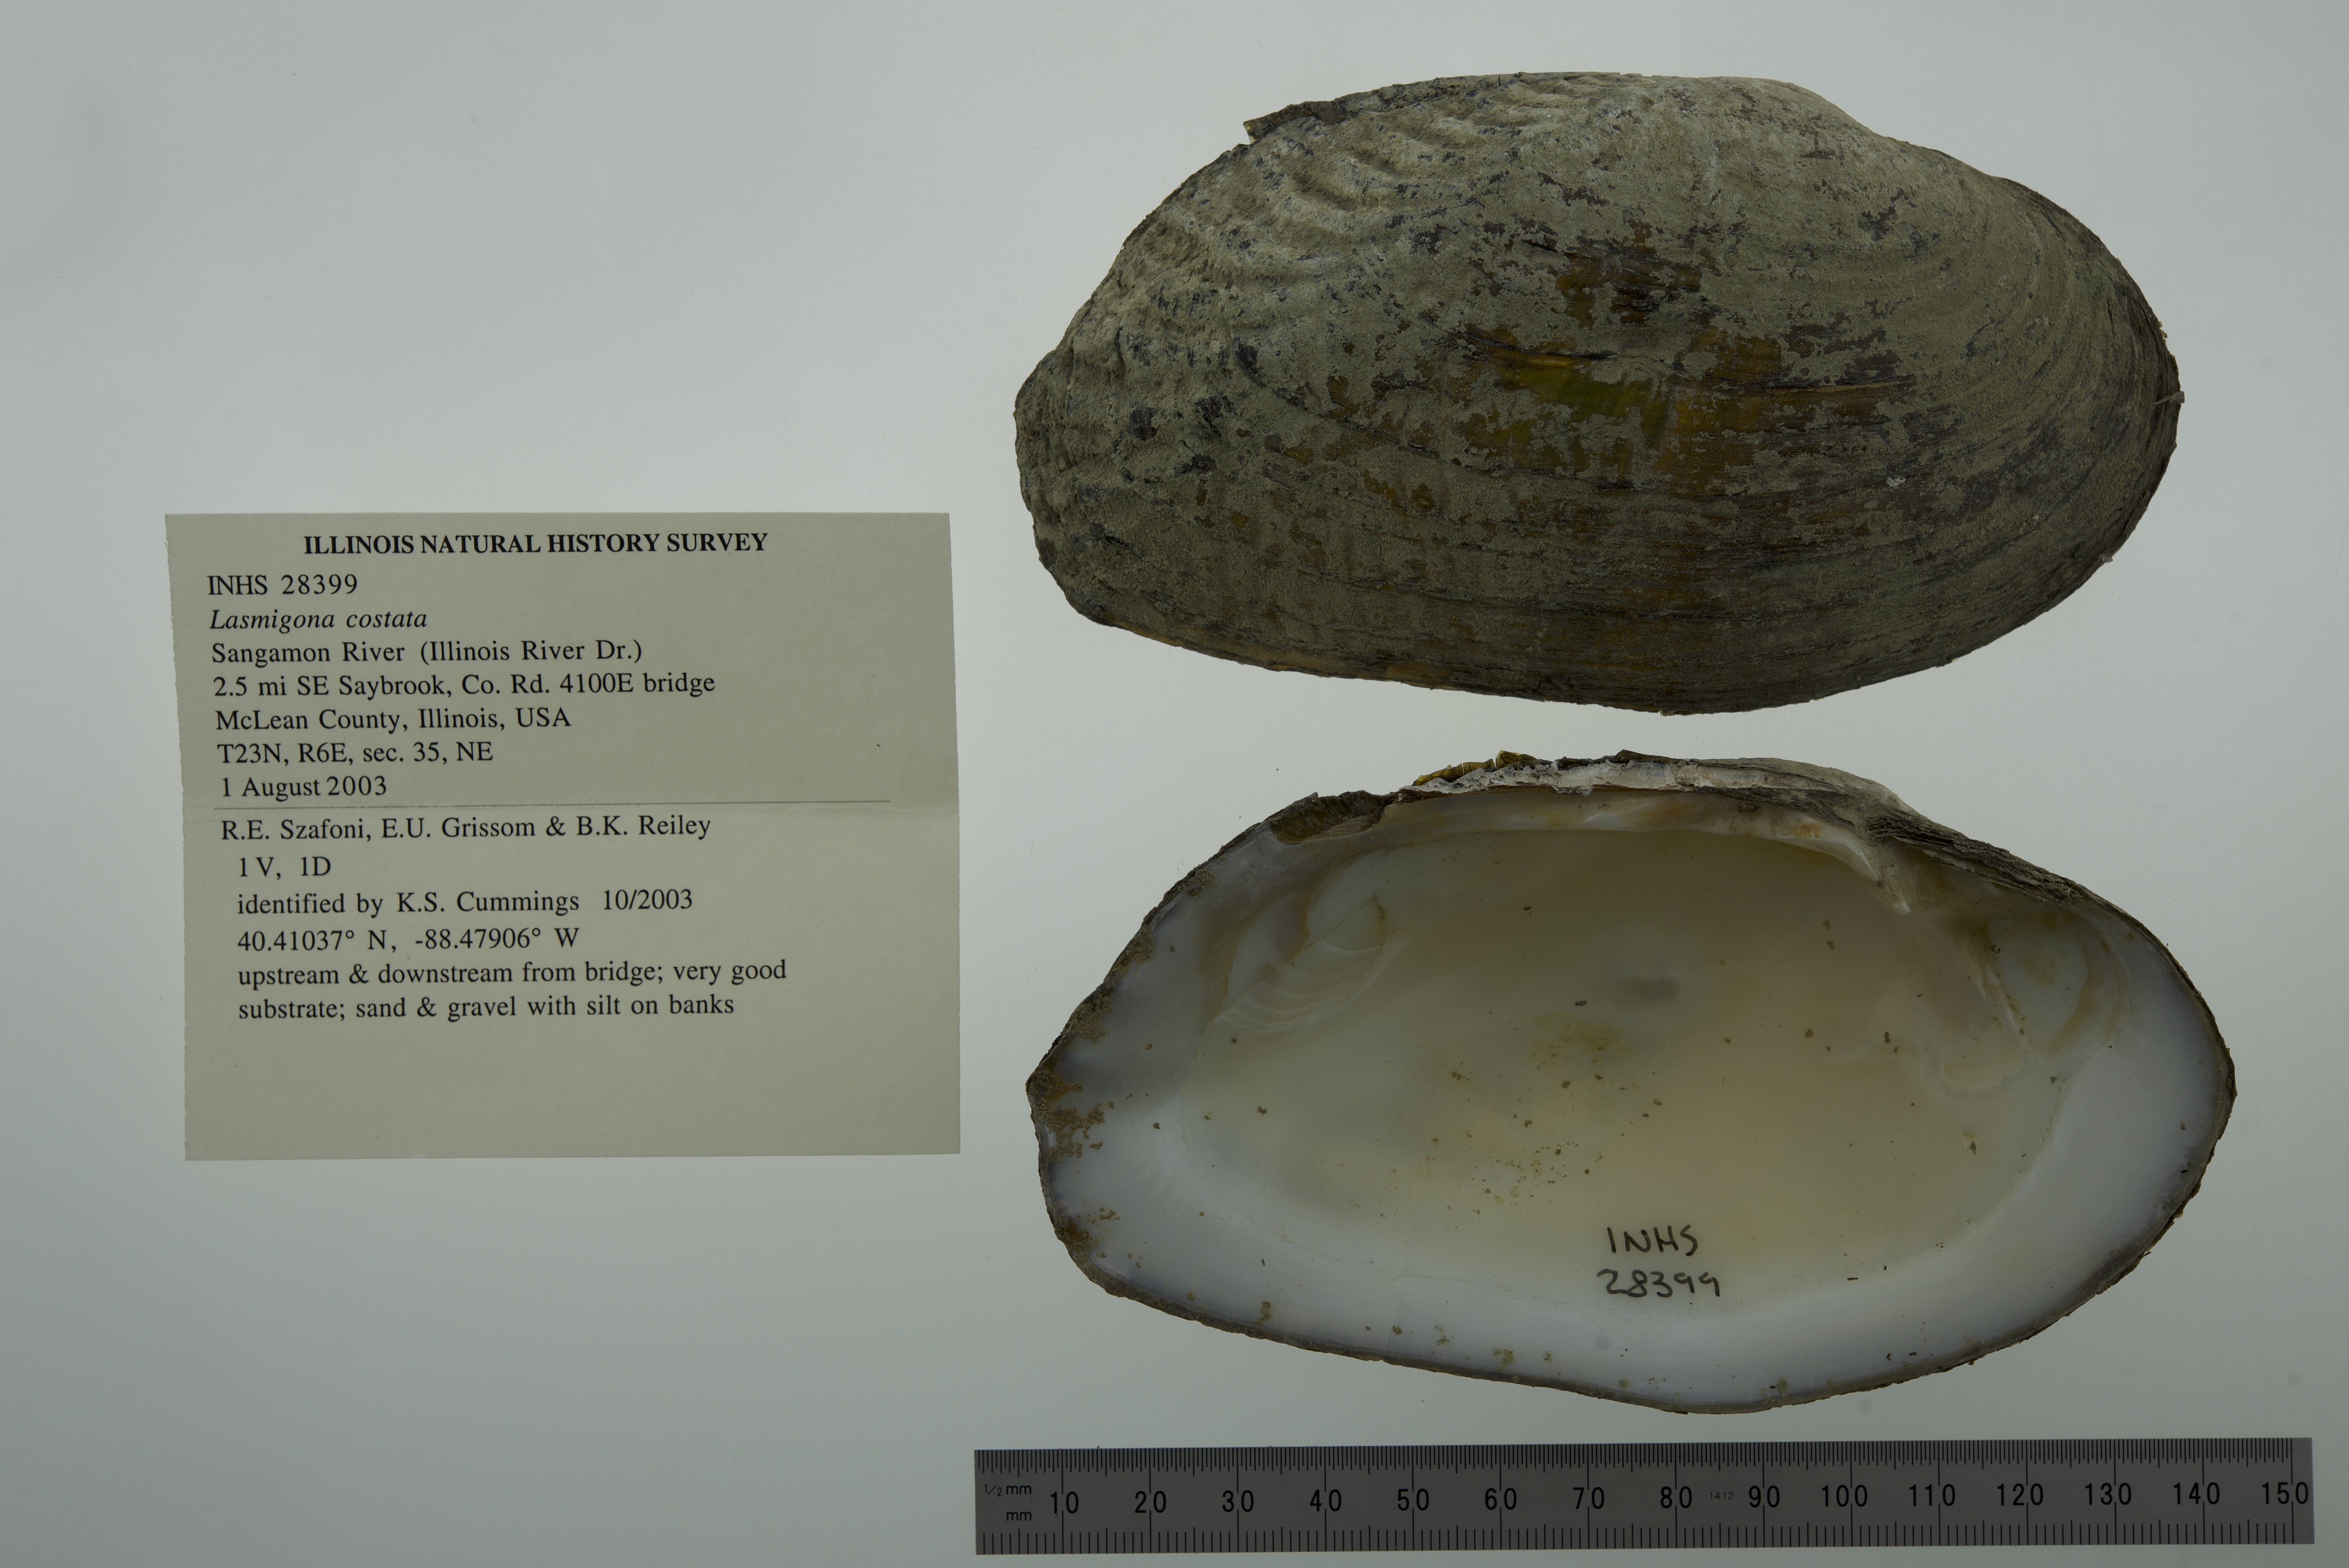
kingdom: Animalia
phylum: Mollusca
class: Bivalvia
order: Unionida
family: Unionidae
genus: Lasmigona
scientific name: Lasmigona costata
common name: Flutedshell
